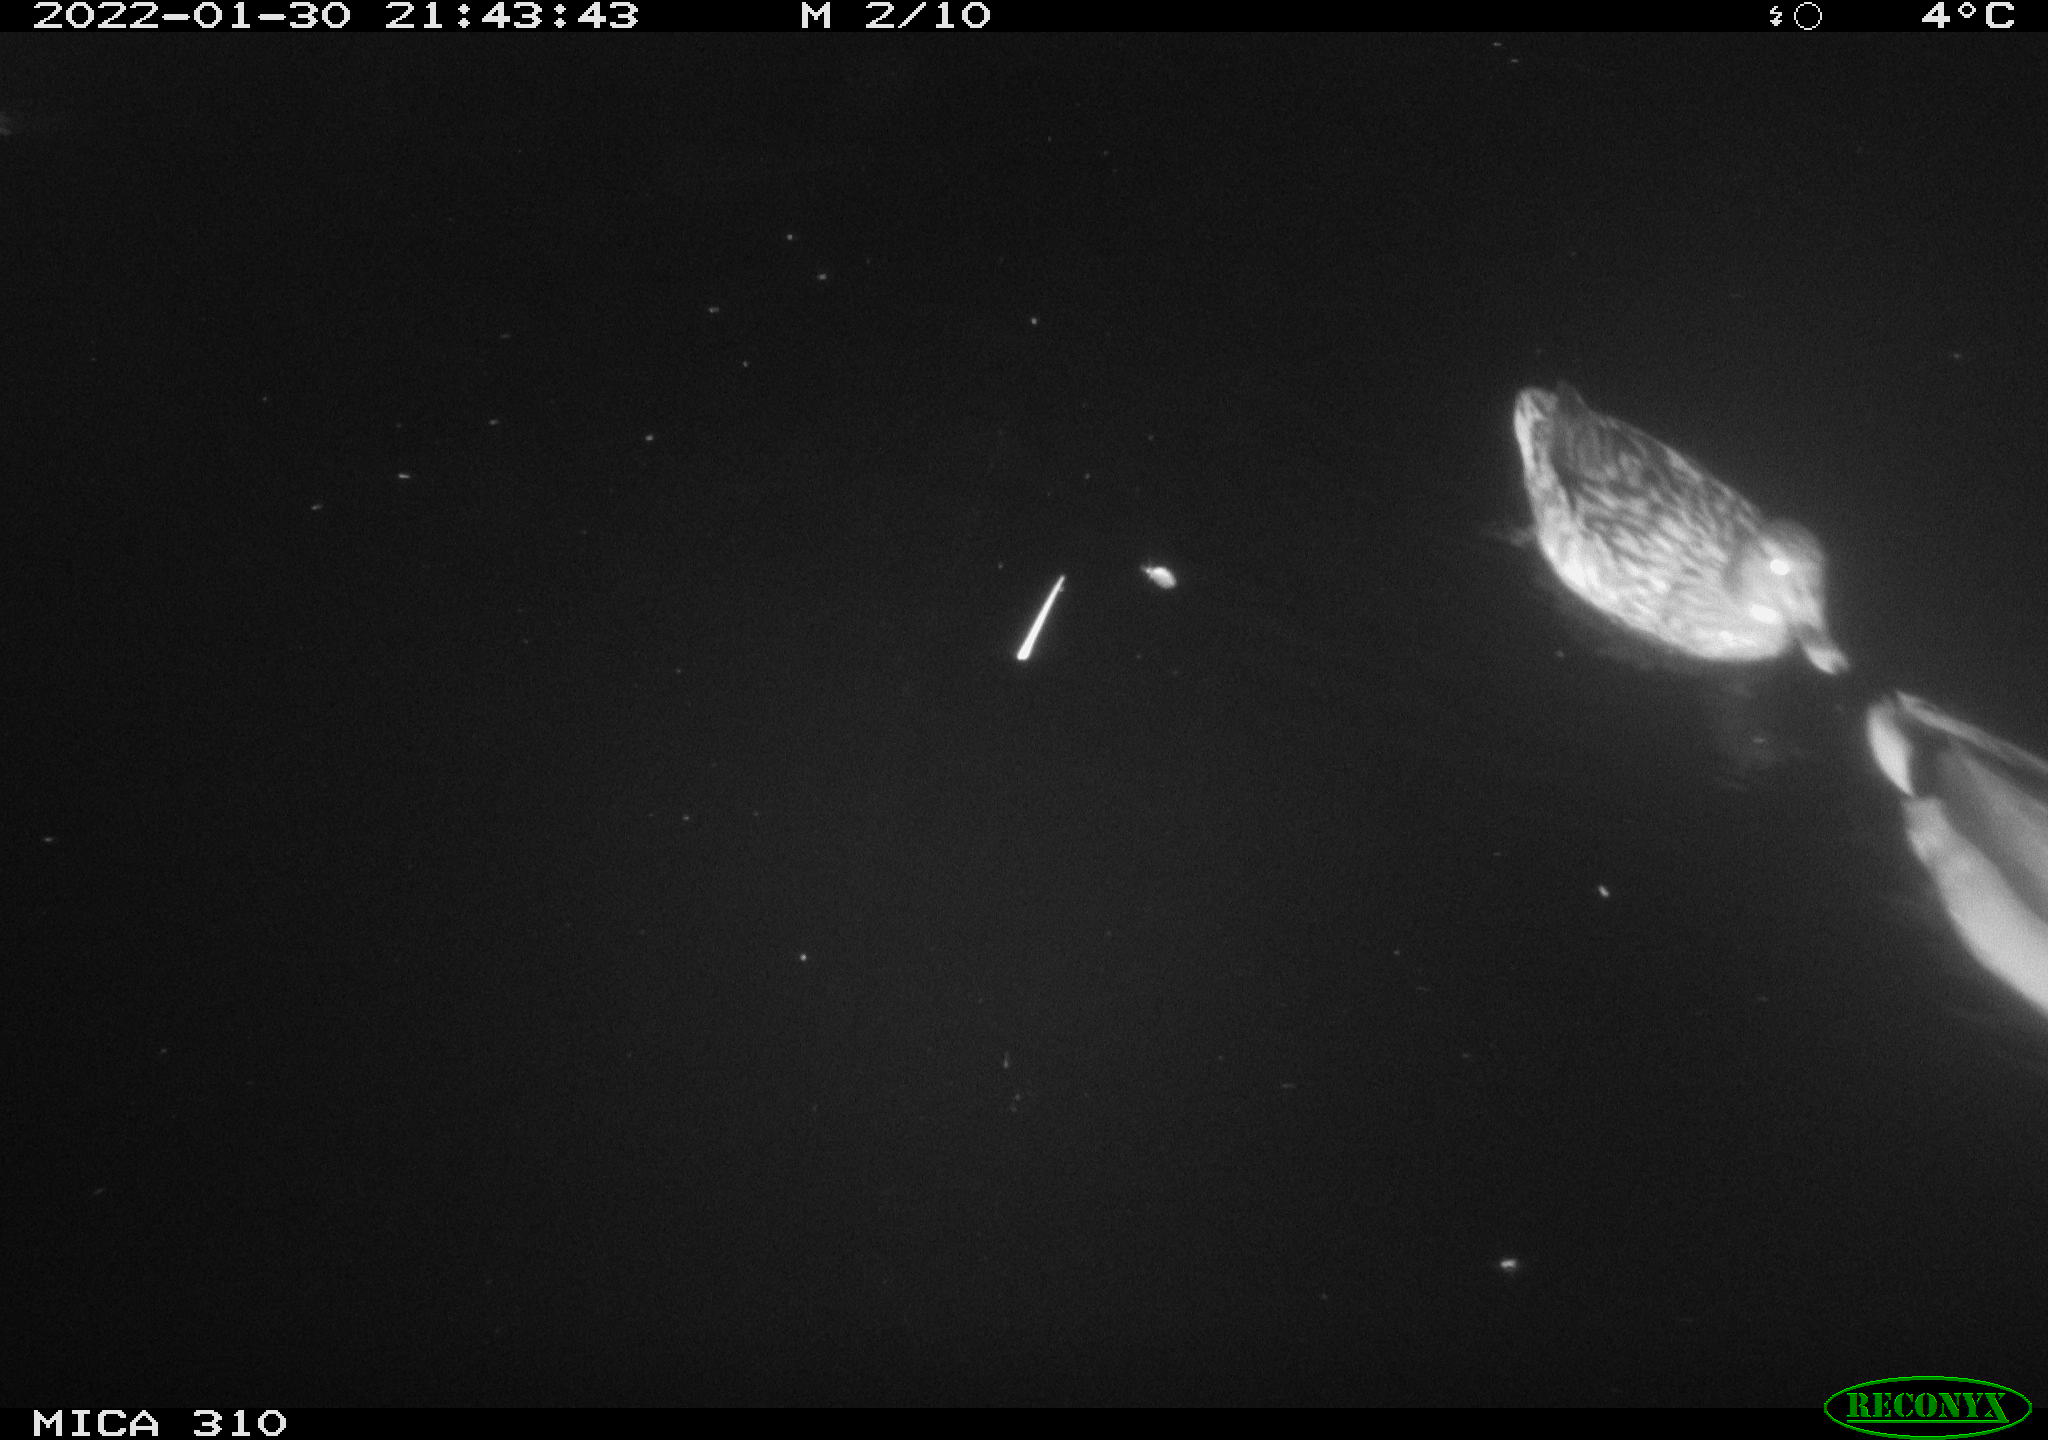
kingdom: Animalia
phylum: Chordata
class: Aves
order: Anseriformes
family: Anatidae
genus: Anas
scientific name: Anas
